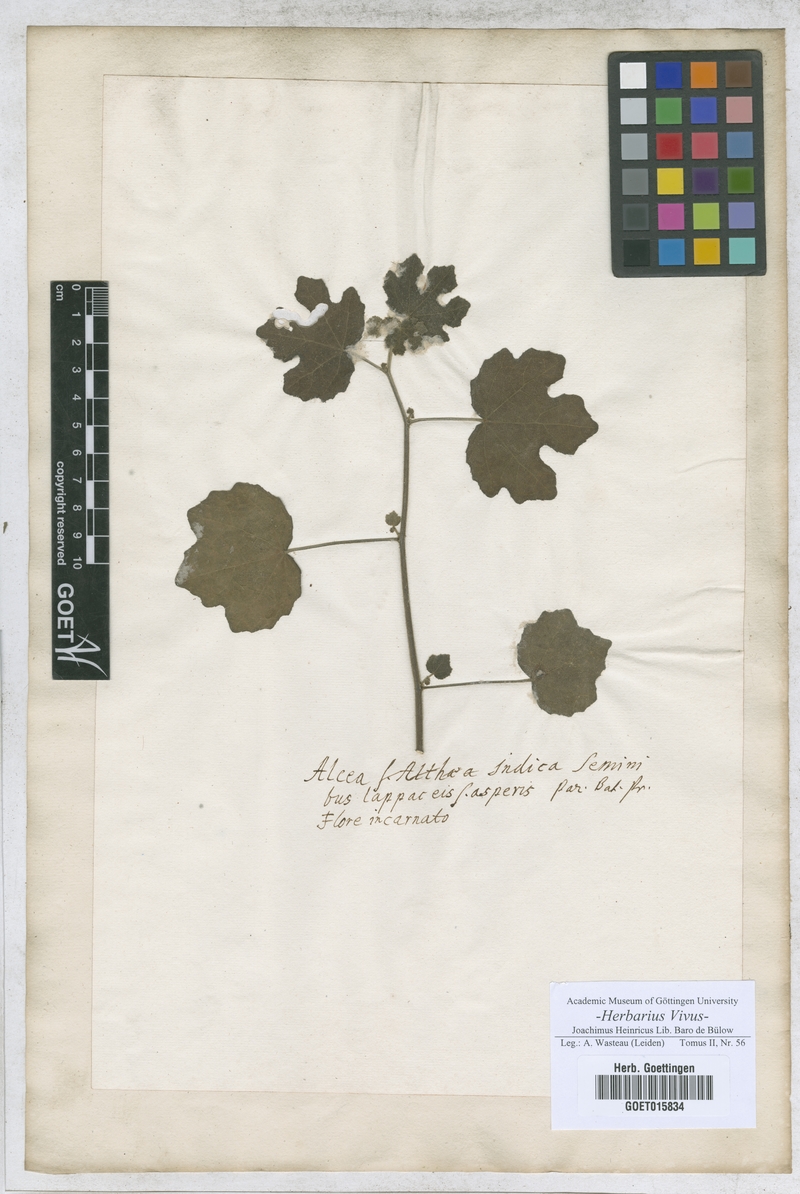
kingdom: Plantae
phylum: Tracheophyta
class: Magnoliopsida
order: Malvales
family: Malvaceae
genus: Althaea
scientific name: Althaea
